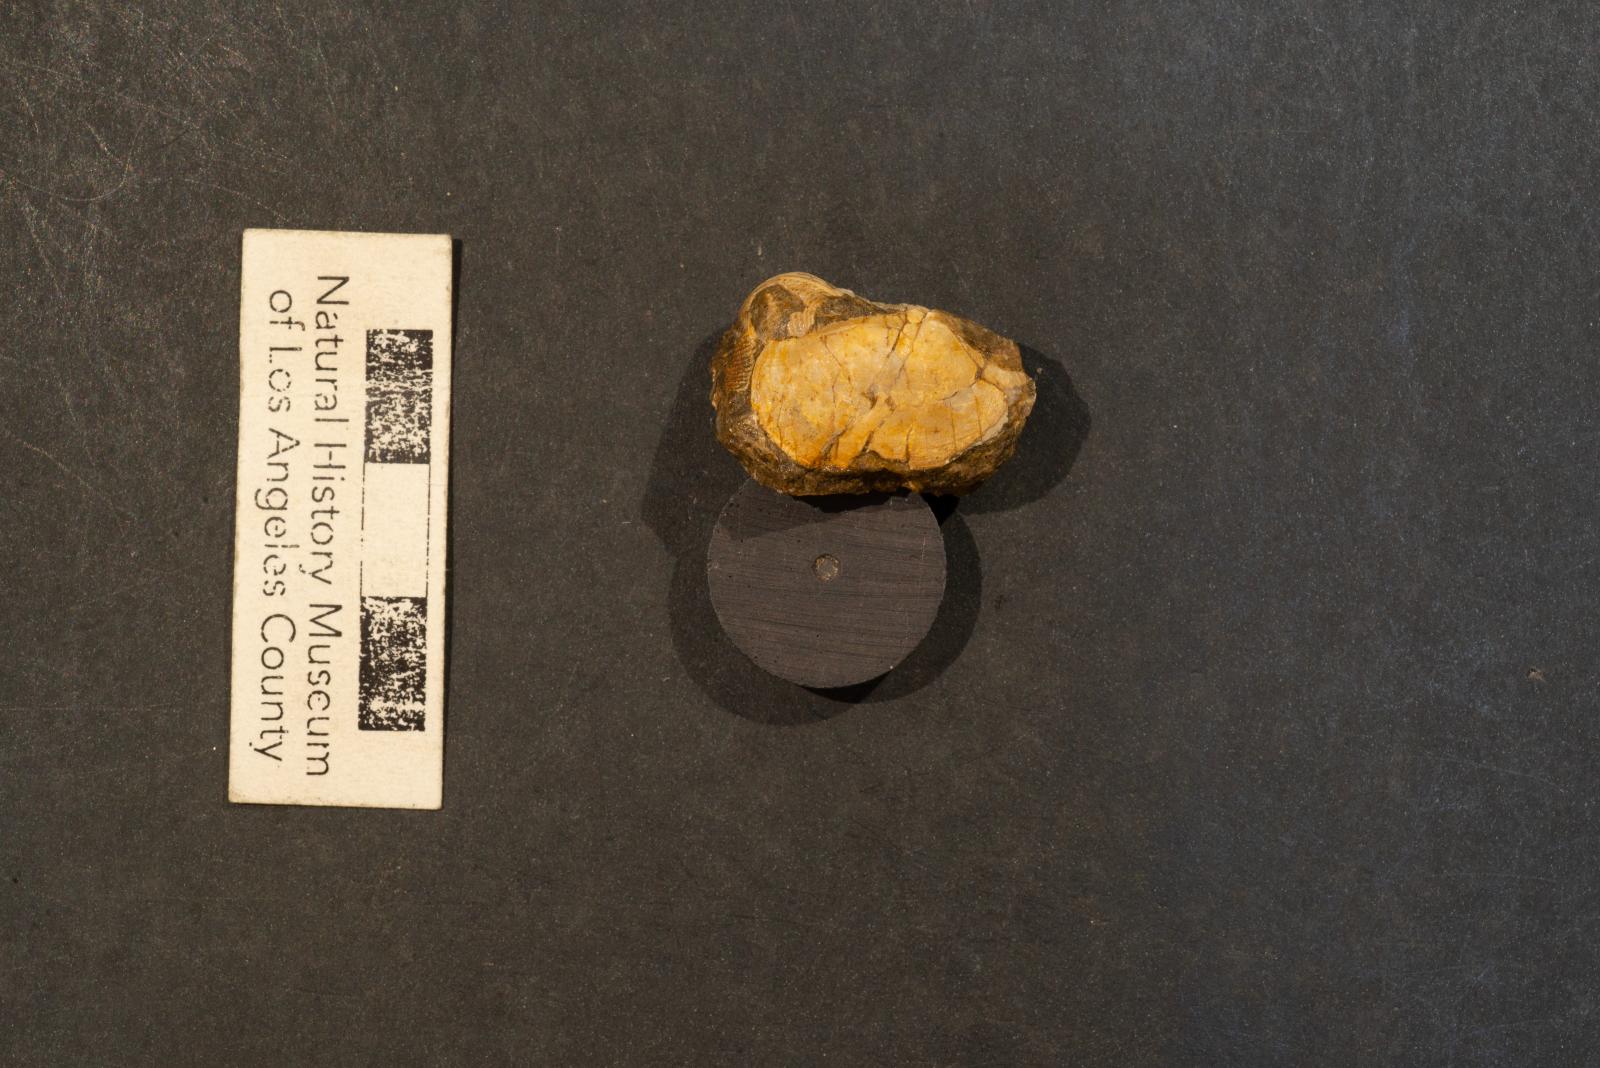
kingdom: Animalia
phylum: Mollusca
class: Bivalvia
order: Venerida
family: Veneridae
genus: Legumen
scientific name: Legumen ooides
